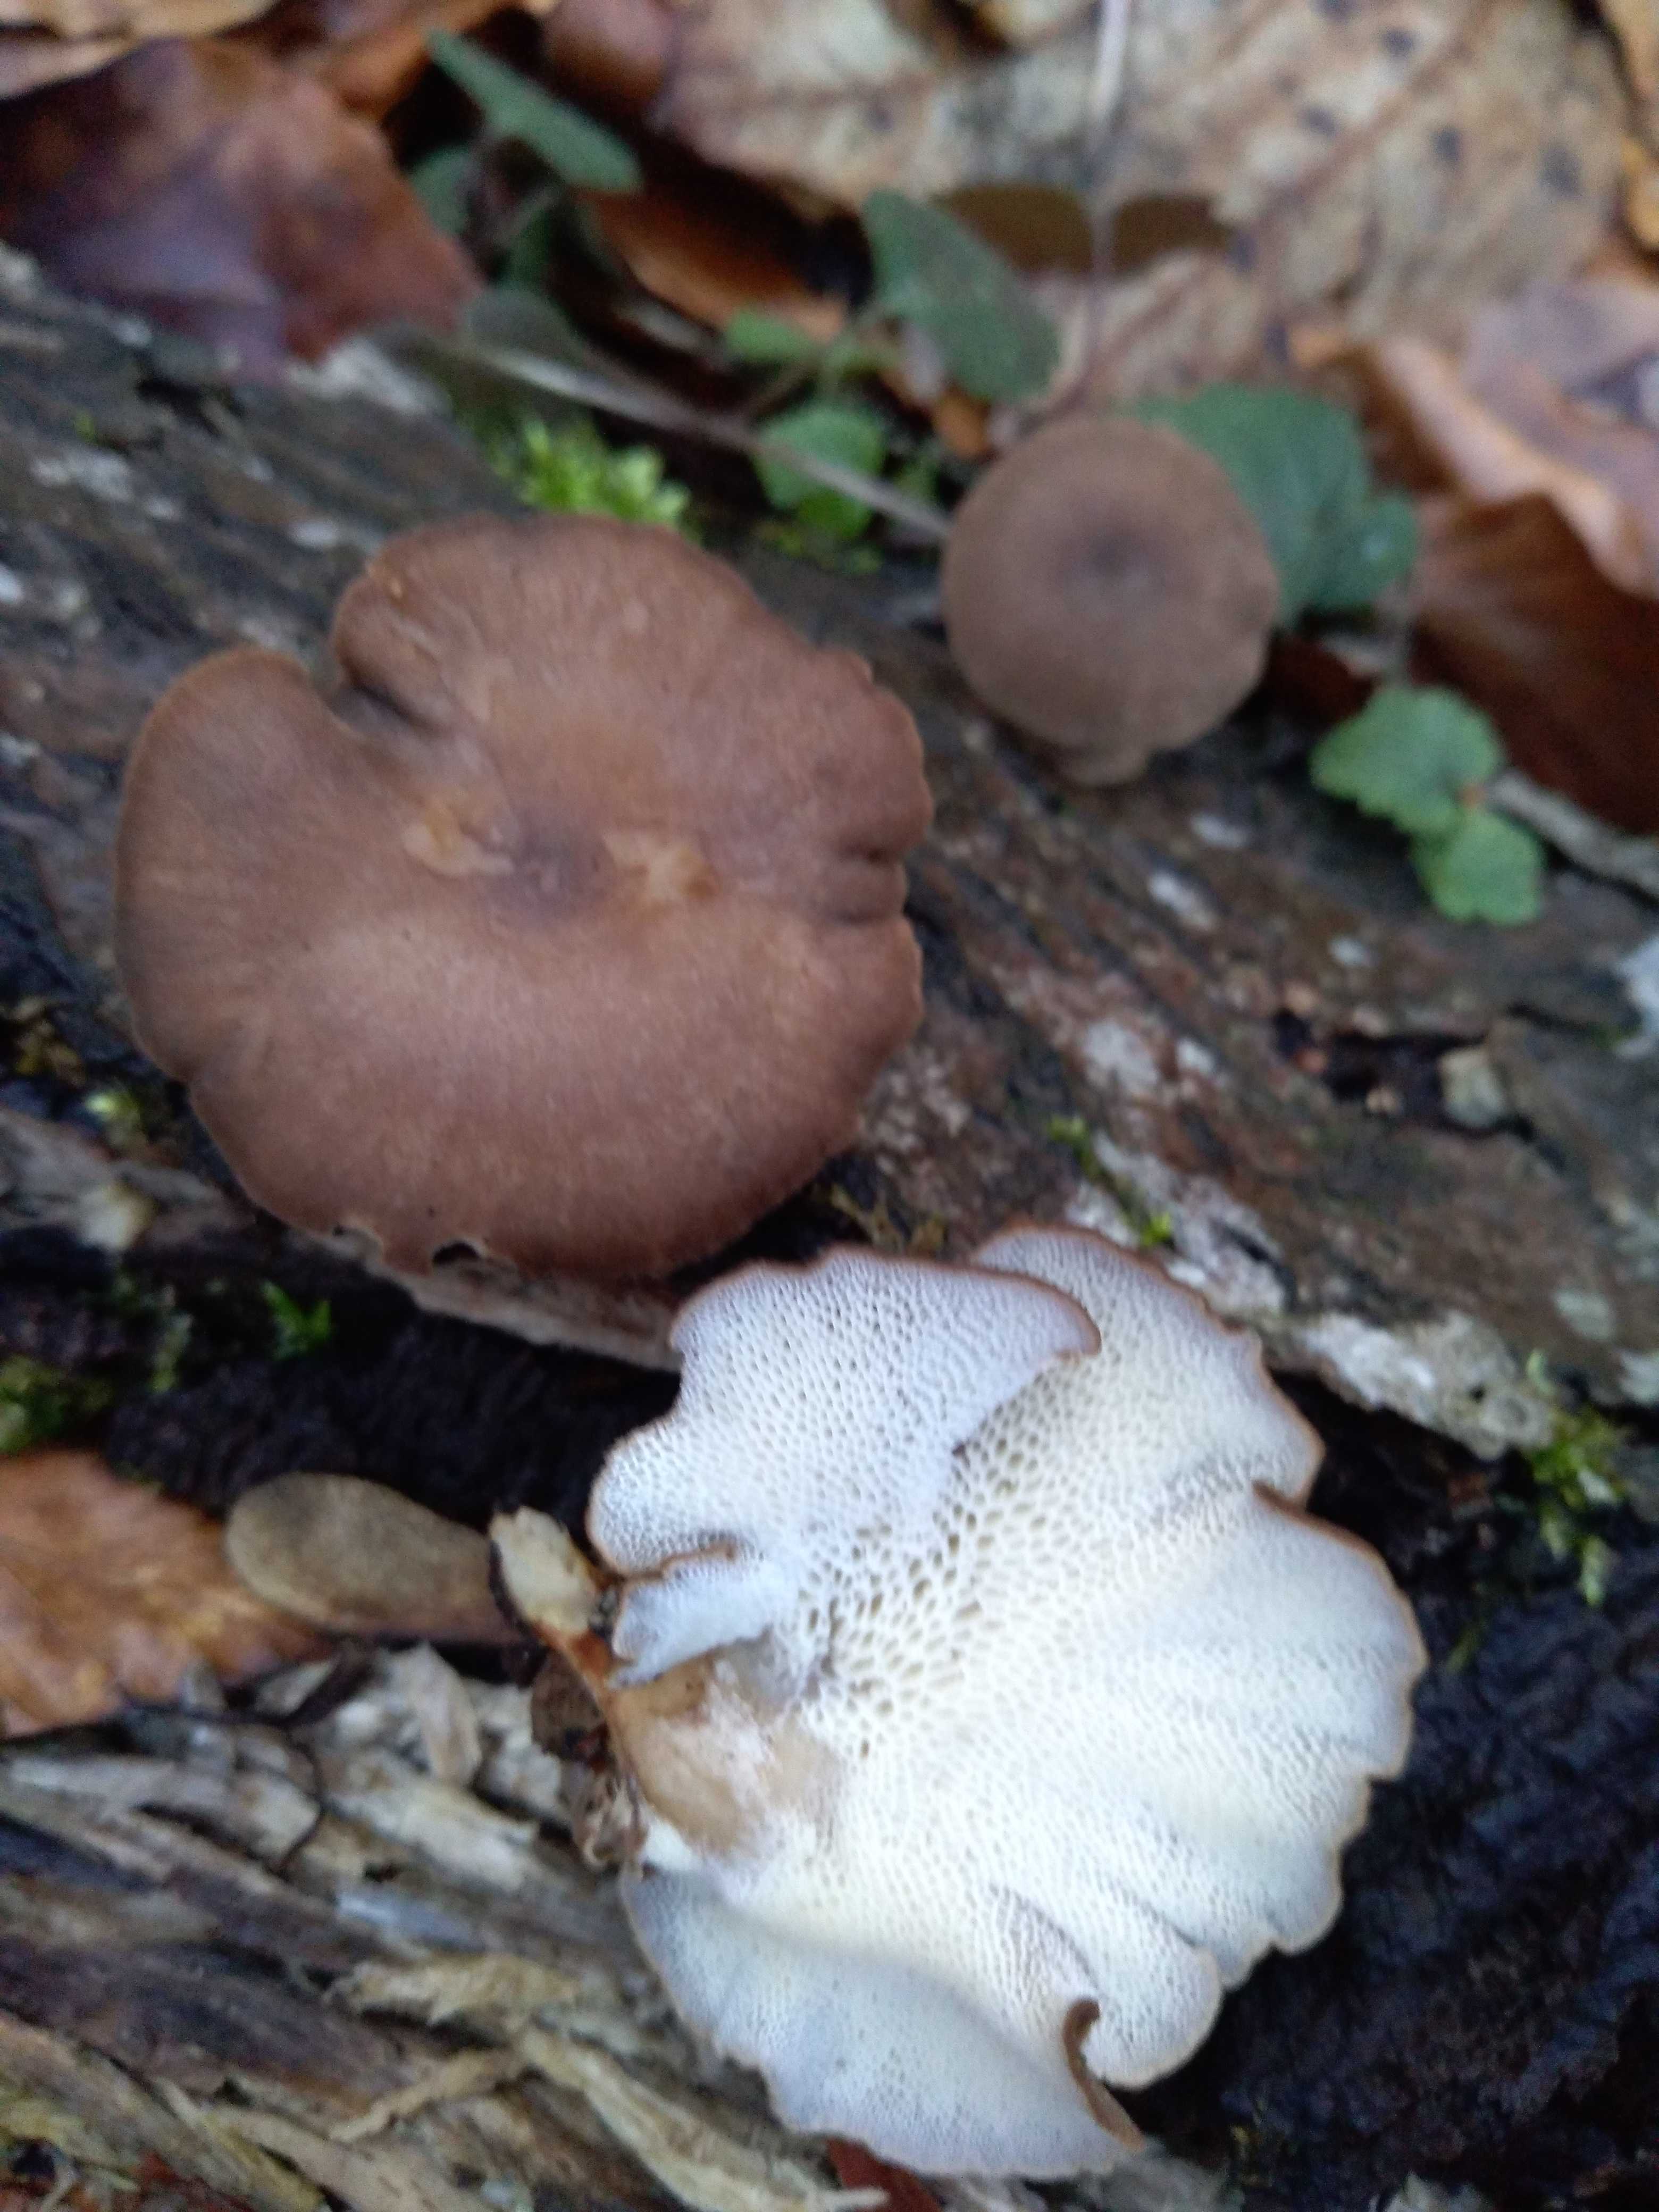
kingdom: Fungi
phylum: Basidiomycota
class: Agaricomycetes
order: Polyporales
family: Polyporaceae
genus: Lentinus
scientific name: Lentinus brumalis
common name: vinter-stilkporesvamp
